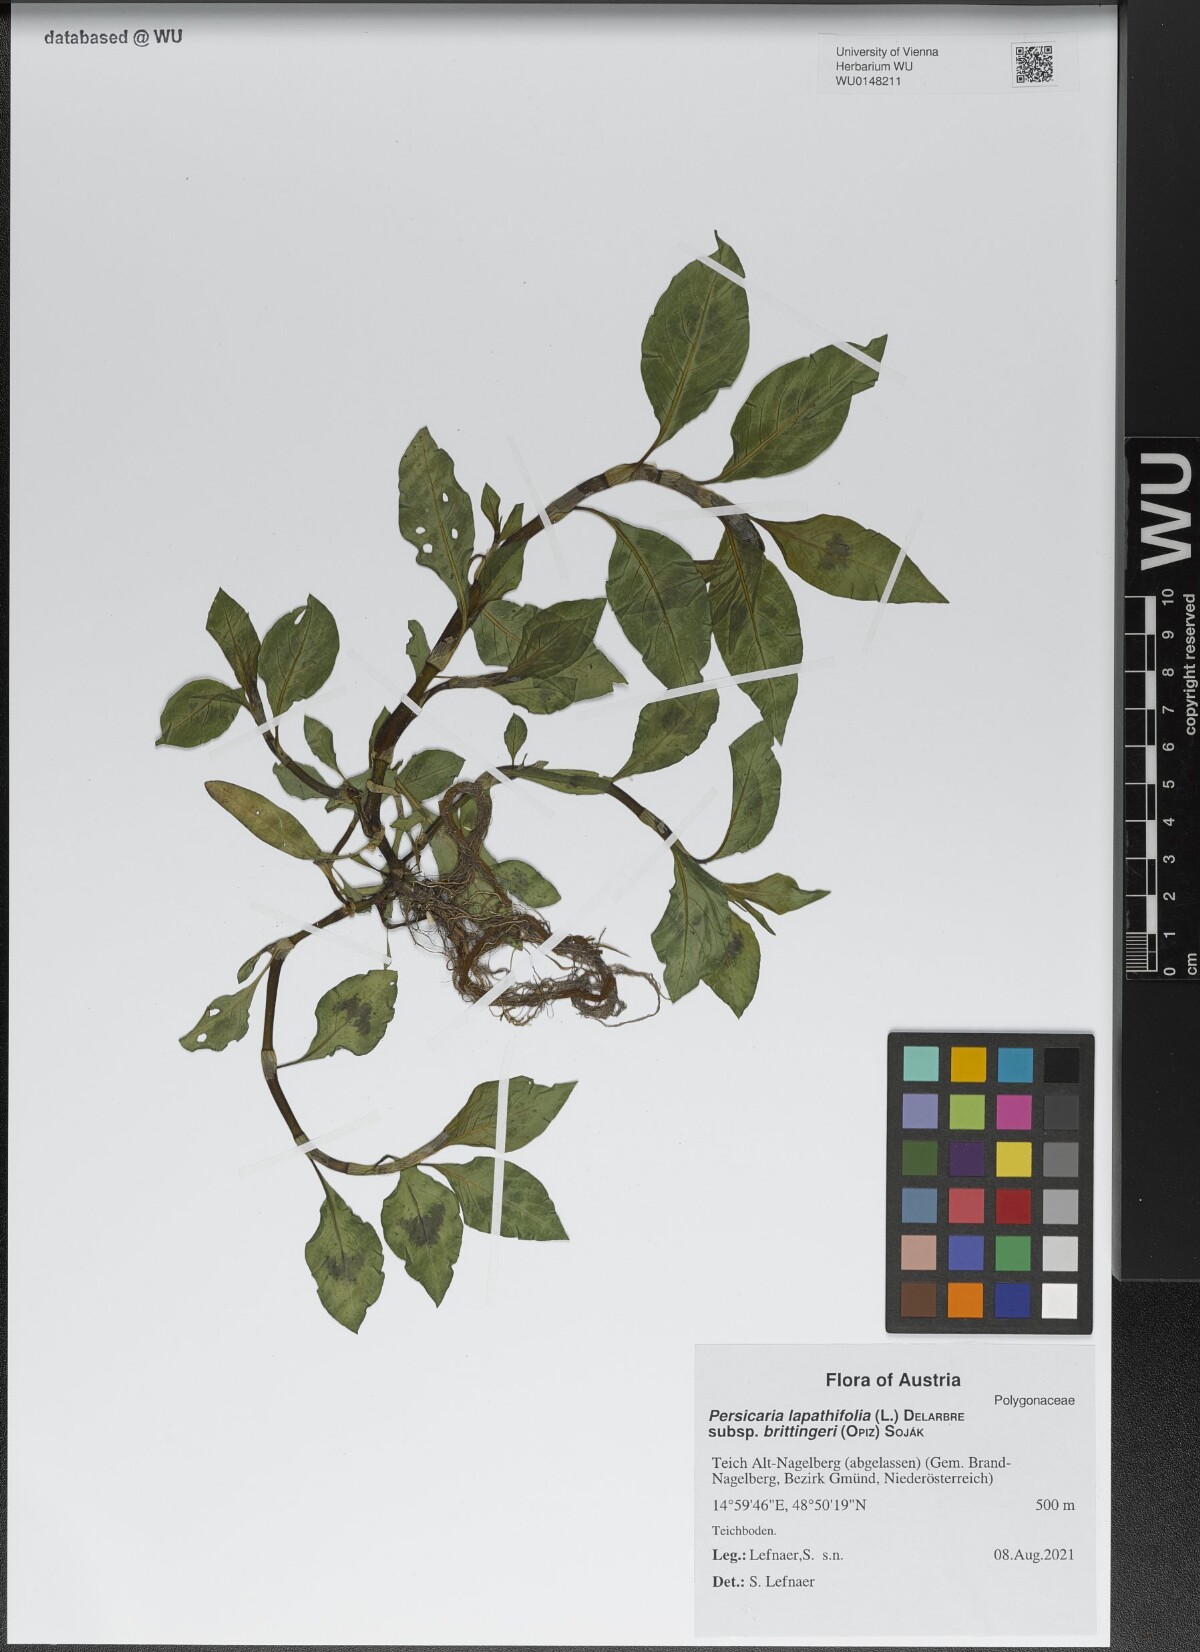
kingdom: Plantae
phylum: Tracheophyta
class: Magnoliopsida
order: Caryophyllales
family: Polygonaceae
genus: Persicaria
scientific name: Persicaria lapathifolia
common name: Curlytop knotweed
